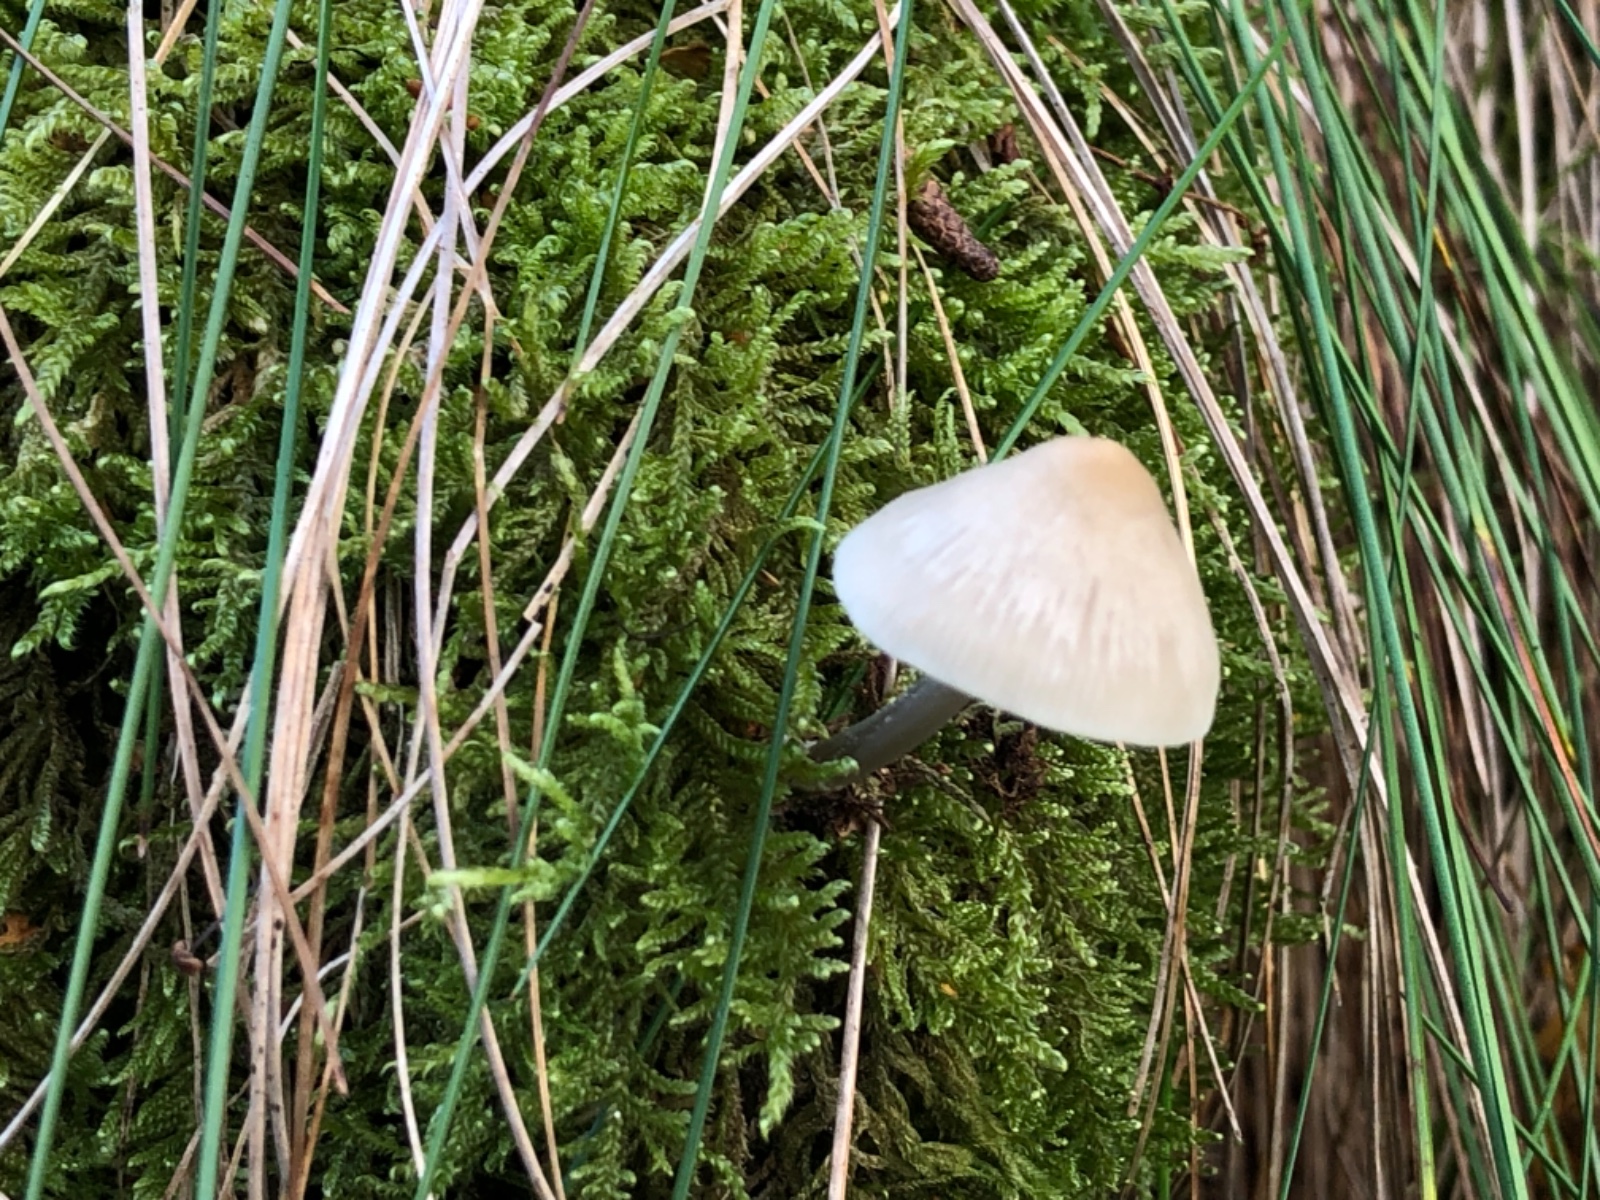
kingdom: Fungi
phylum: Basidiomycota
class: Agaricomycetes
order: Agaricales
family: Mycenaceae
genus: Mycena
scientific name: Mycena galericulata
